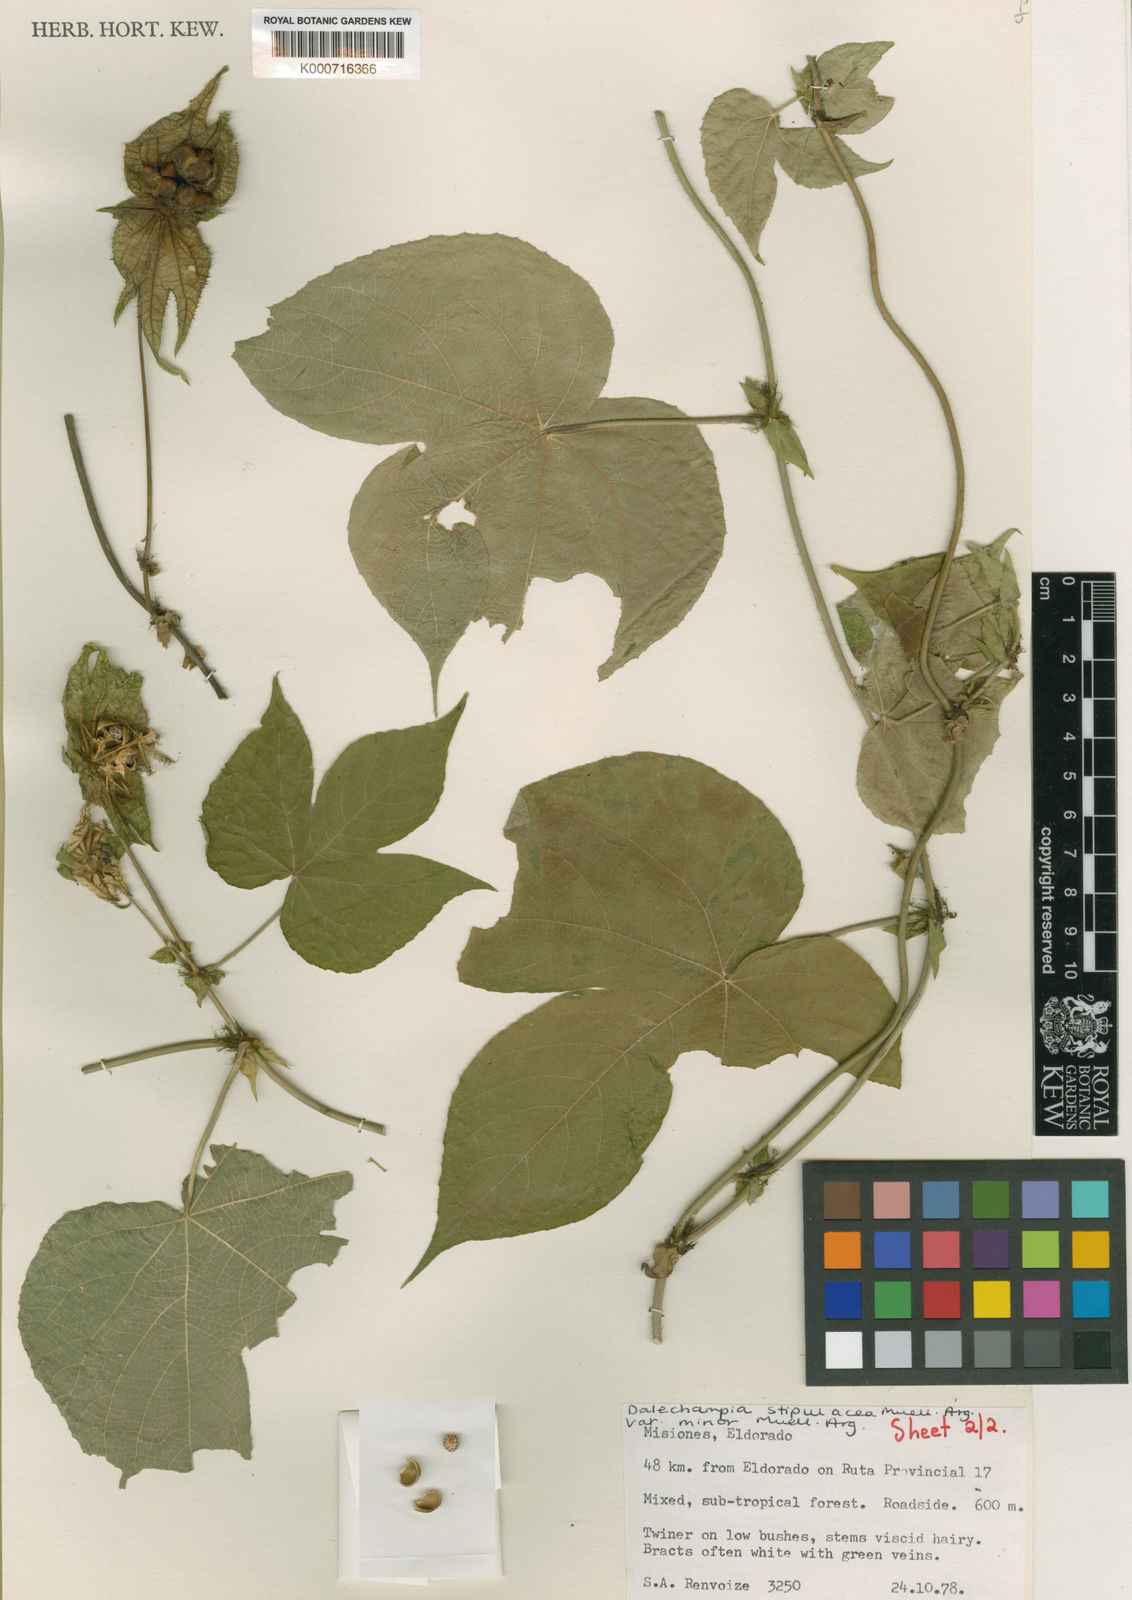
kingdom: Plantae
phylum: Tracheophyta
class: Magnoliopsida
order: Malpighiales
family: Euphorbiaceae
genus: Dalechampia
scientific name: Dalechampia
